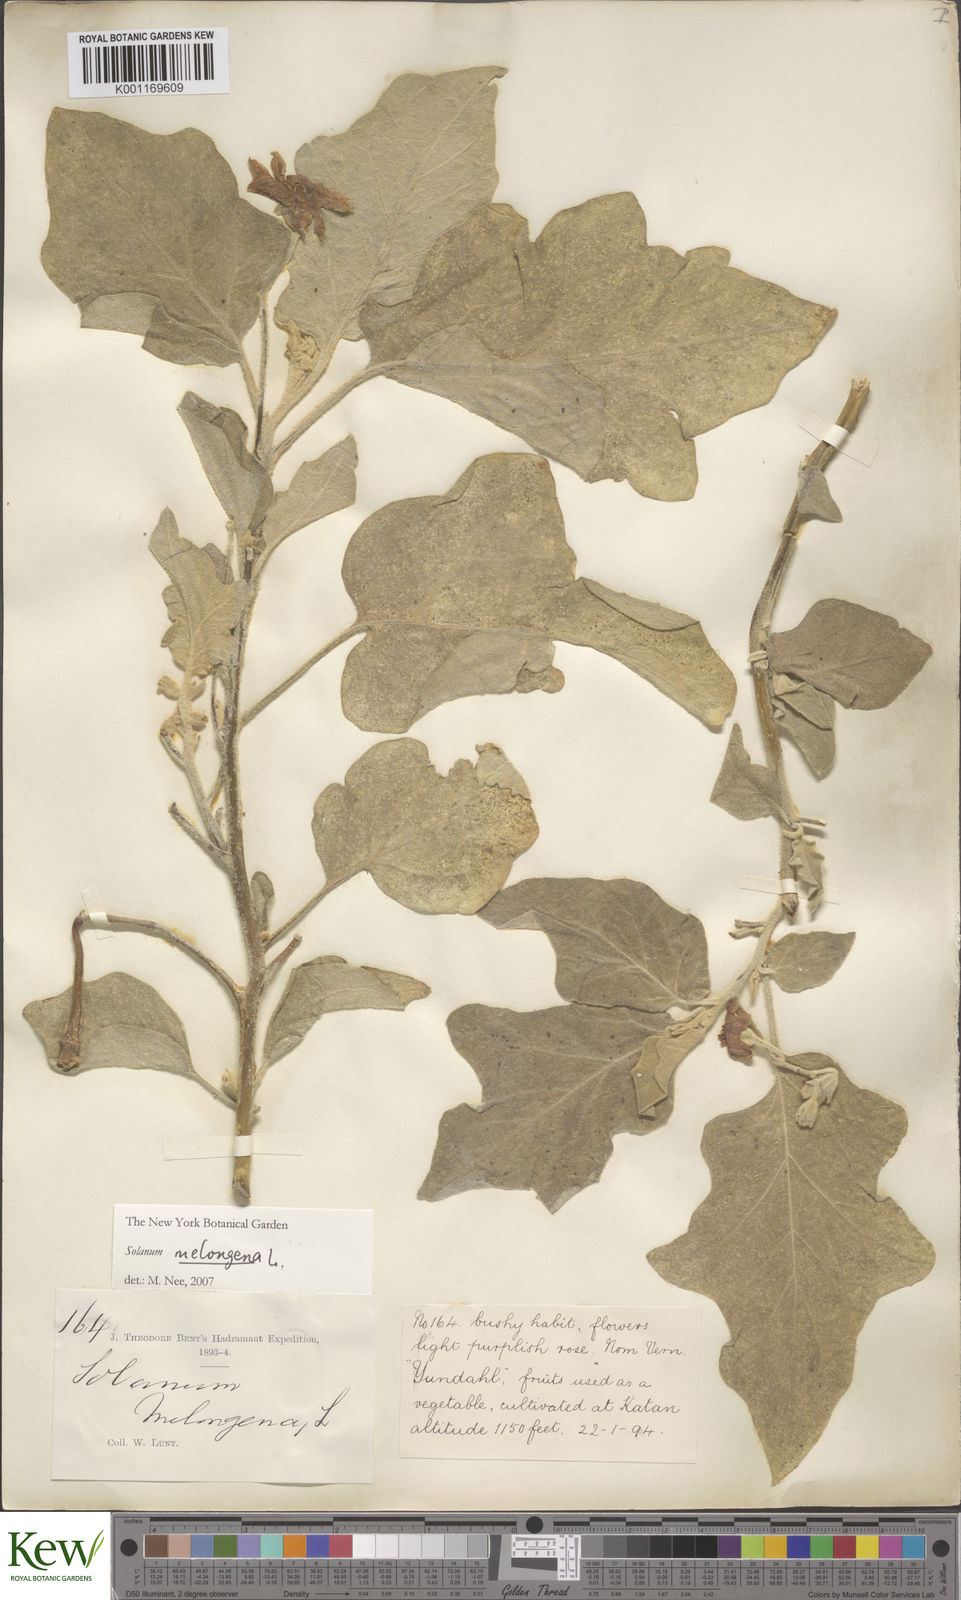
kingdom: Plantae
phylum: Tracheophyta
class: Magnoliopsida
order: Solanales
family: Solanaceae
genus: Solanum
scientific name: Solanum melongena
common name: Eggplant
